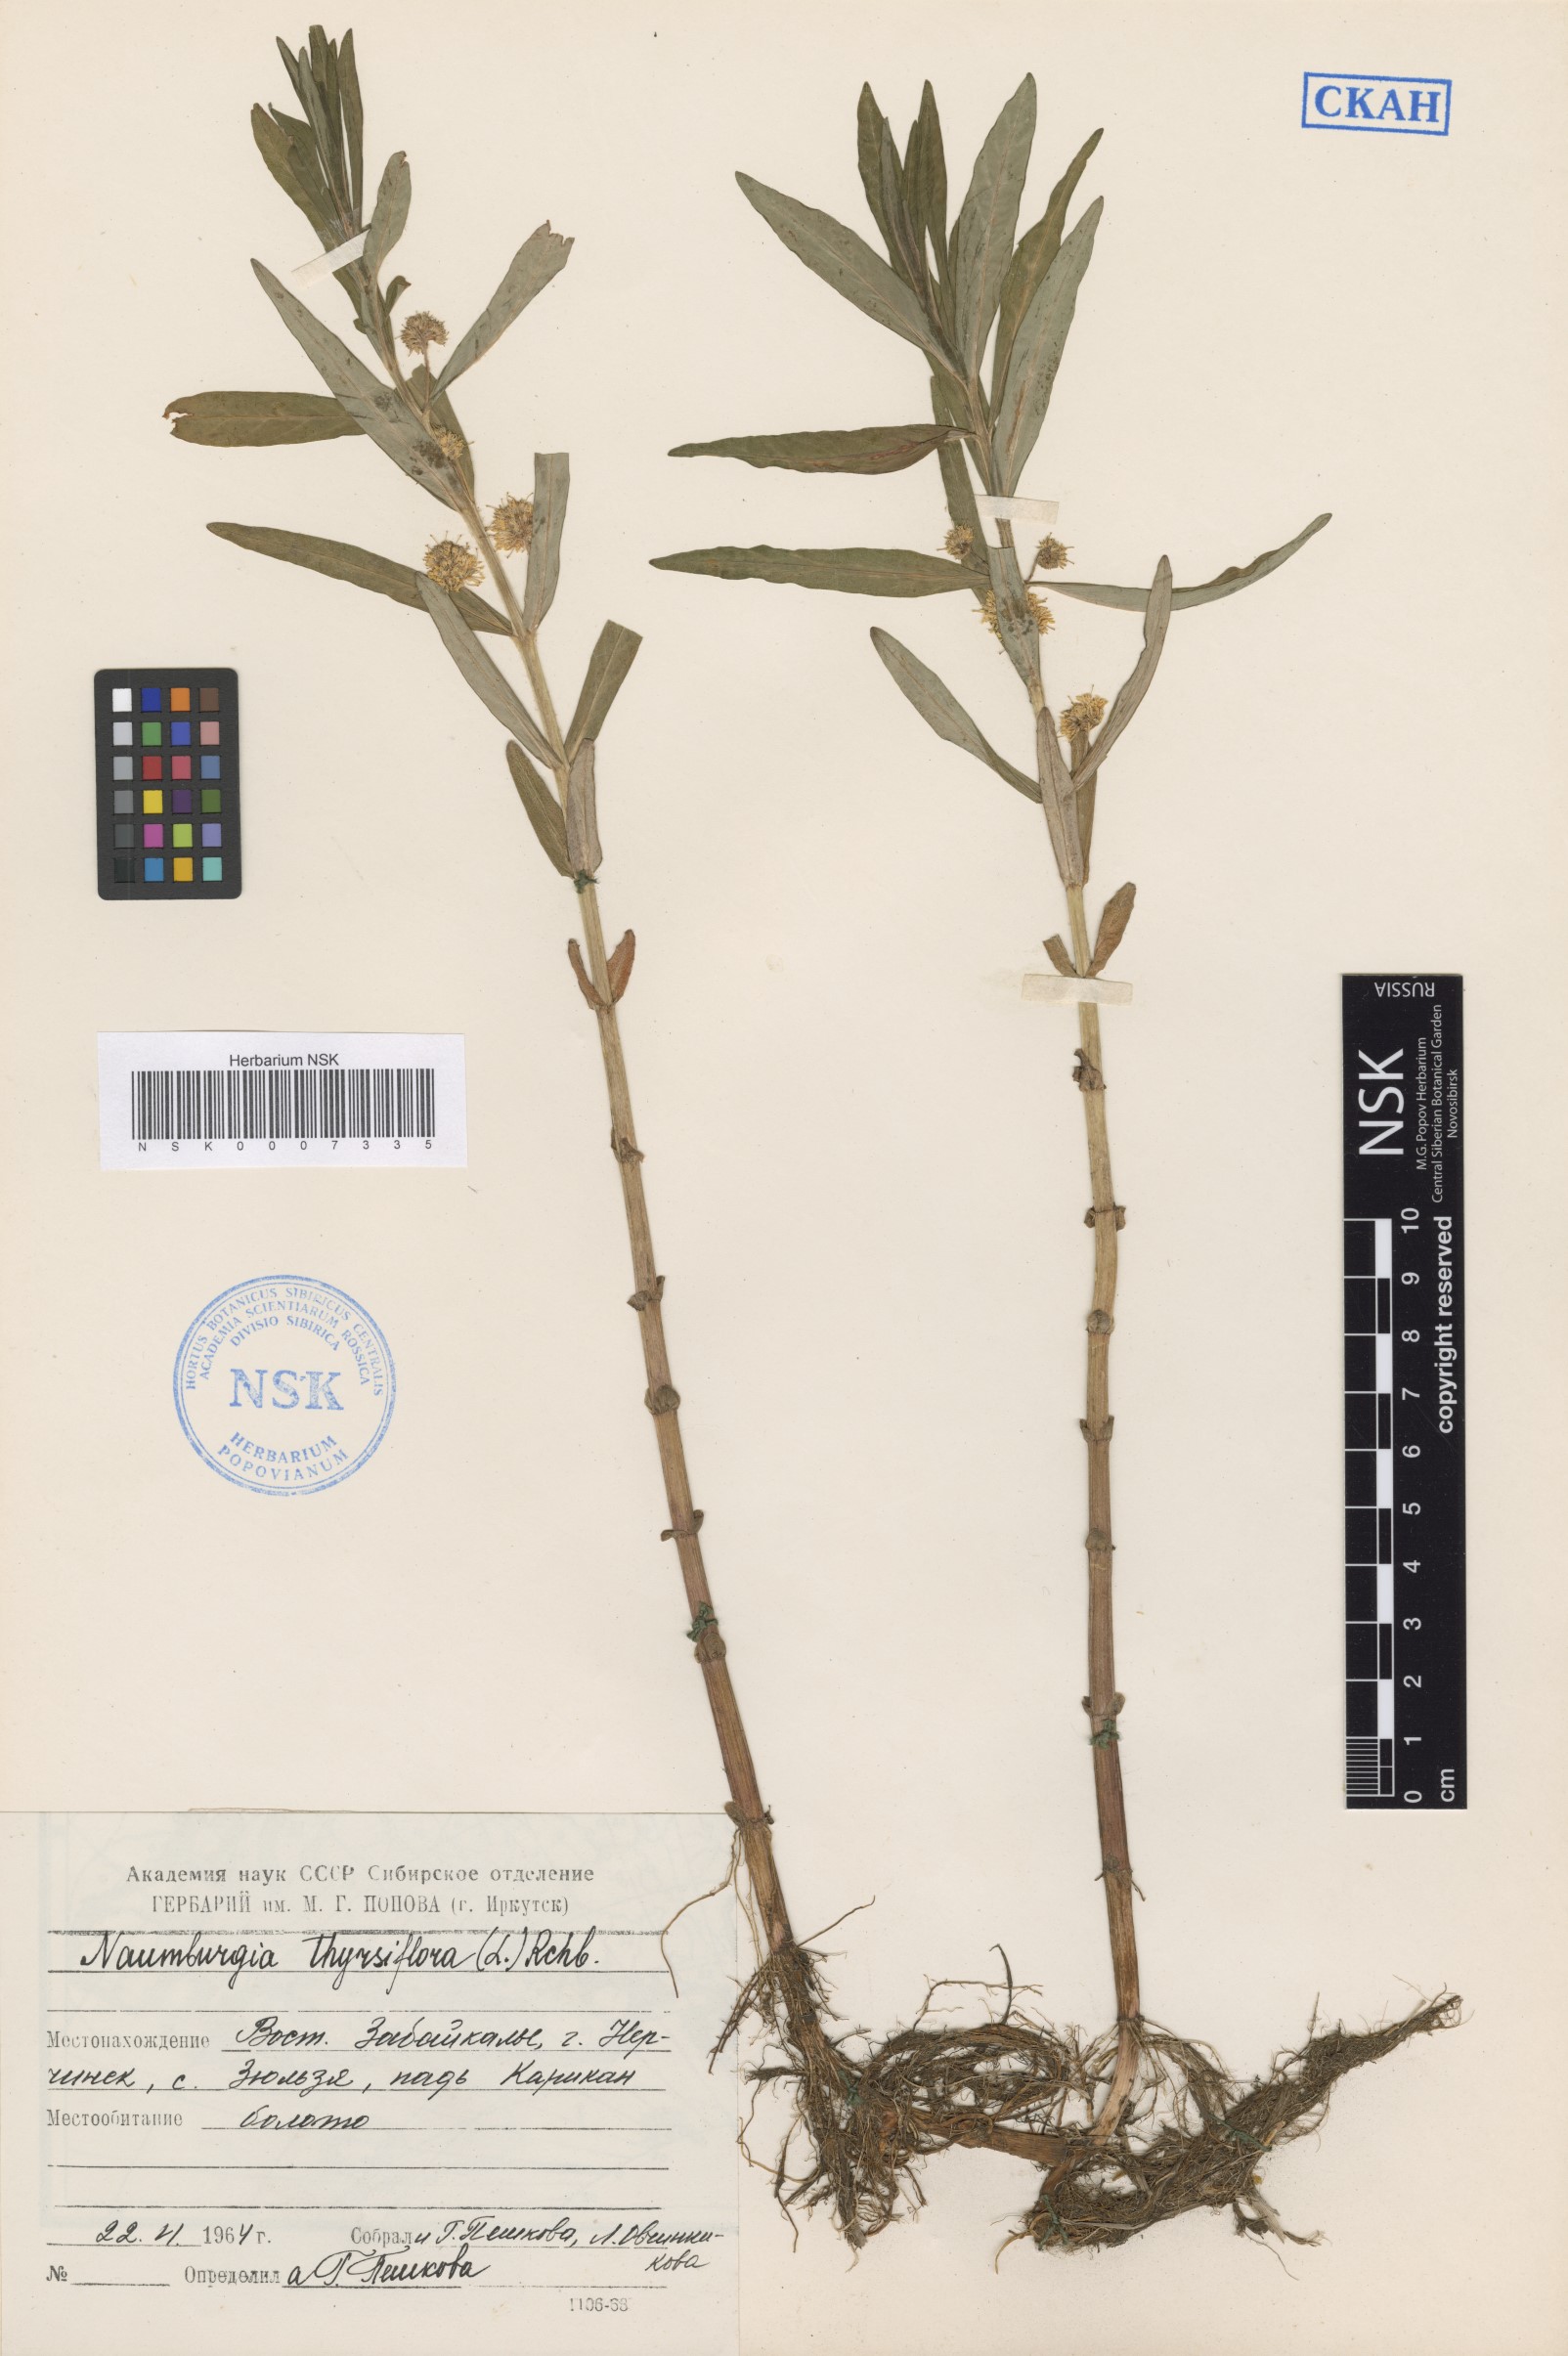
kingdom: Plantae
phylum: Tracheophyta
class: Magnoliopsida
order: Ericales
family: Primulaceae
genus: Lysimachia
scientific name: Lysimachia thyrsiflora
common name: Tufted loosestrife
